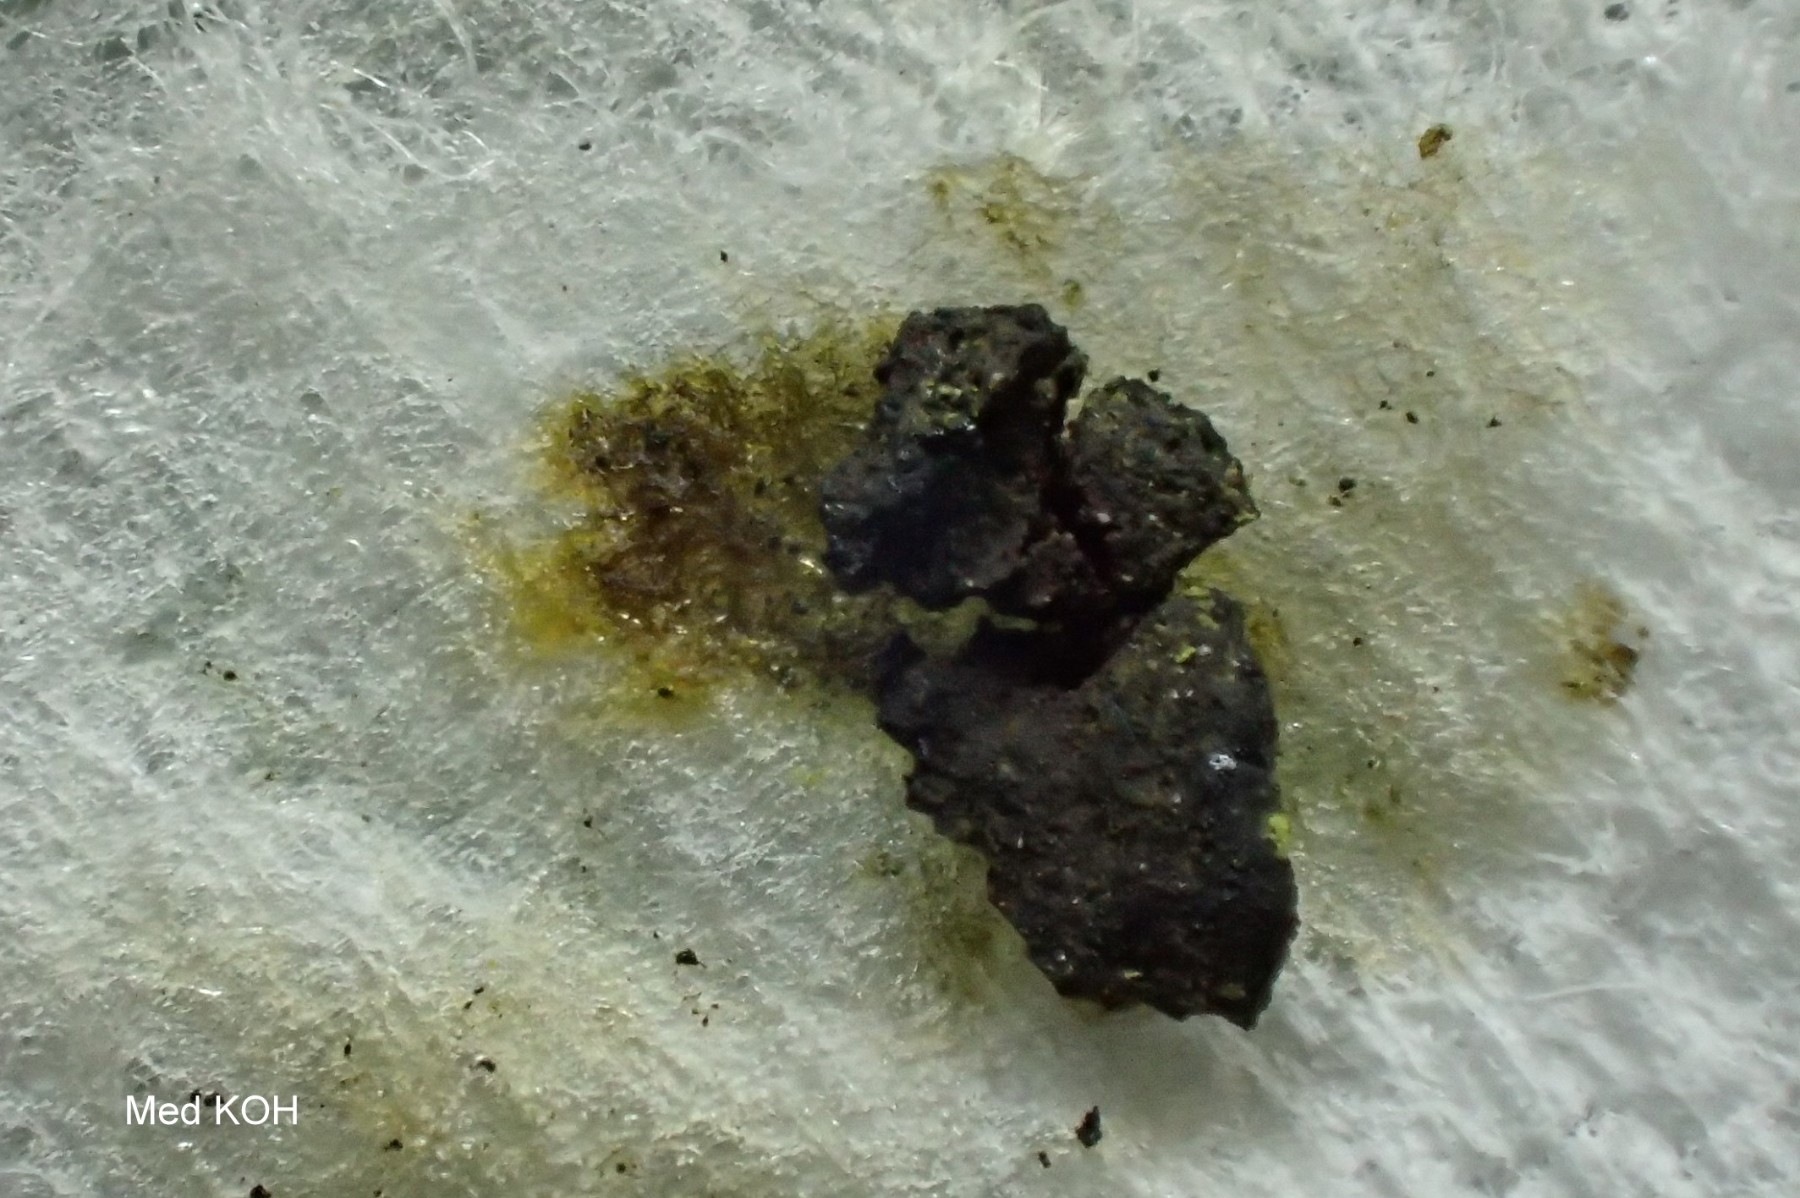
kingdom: Fungi
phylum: Ascomycota
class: Sordariomycetes
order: Xylariales
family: Hypoxylaceae
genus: Hypoxylon
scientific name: Hypoxylon fuscum
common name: kegleformet kulbær
